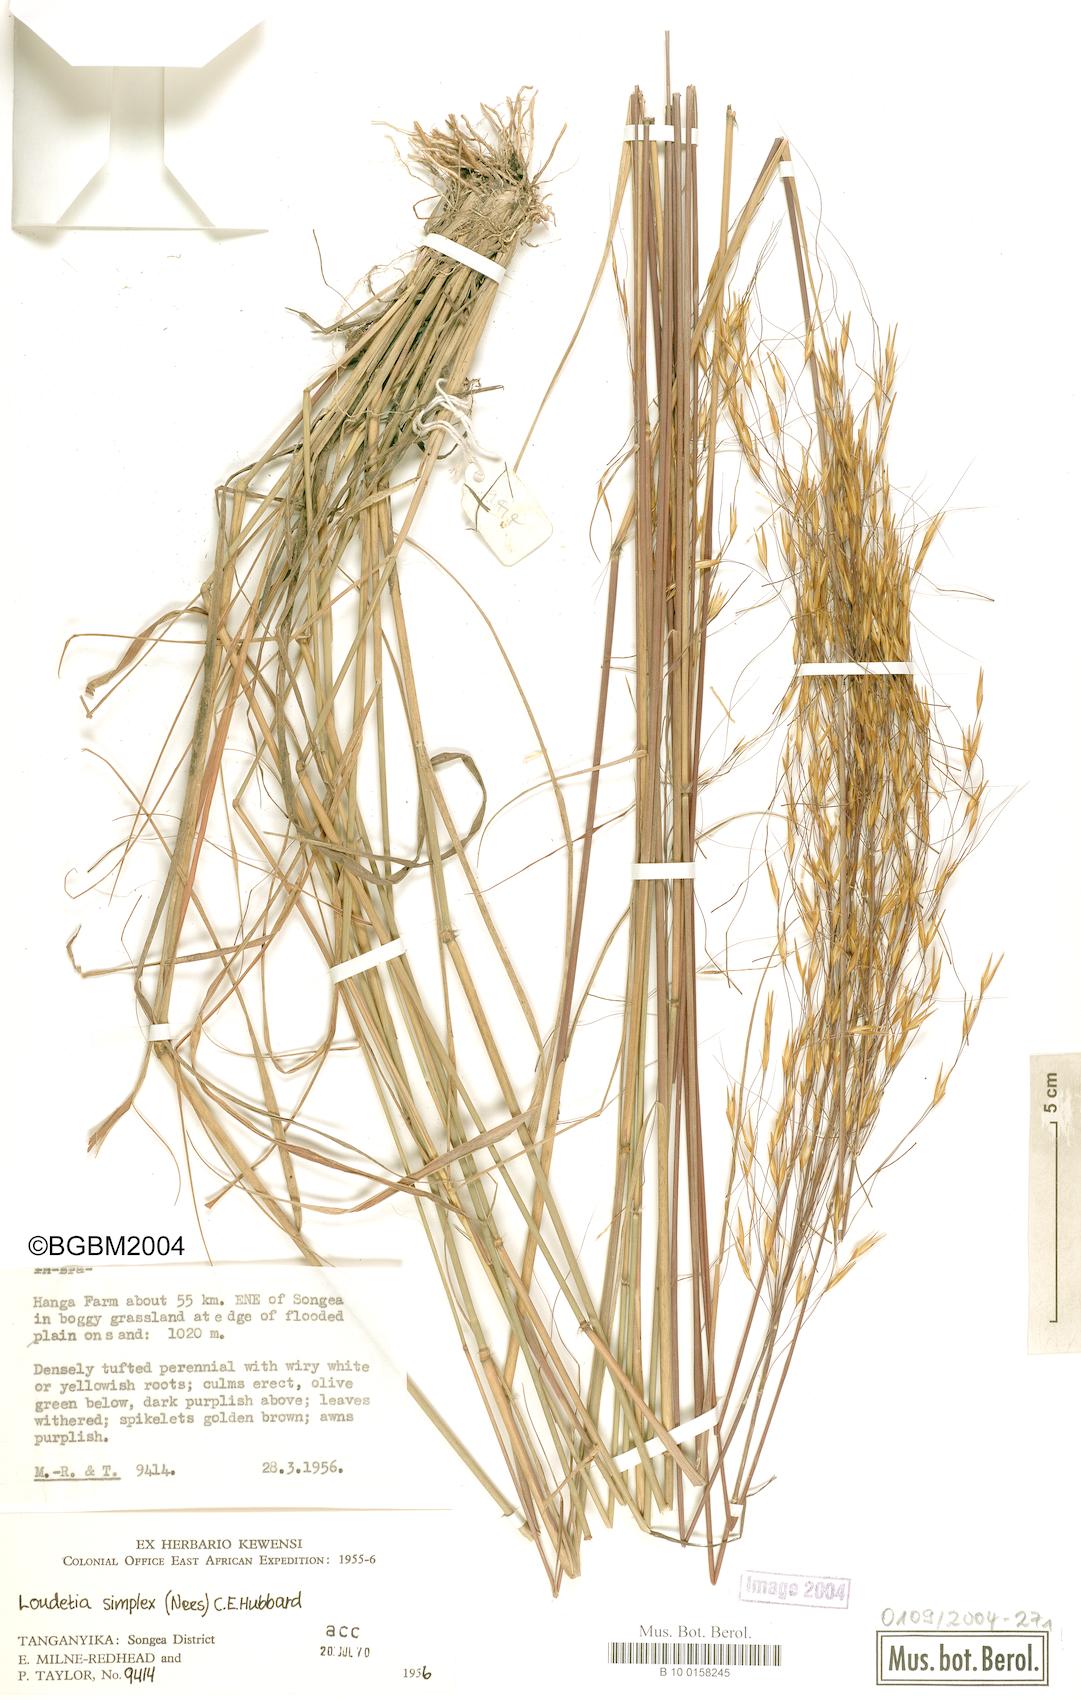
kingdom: Plantae
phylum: Tracheophyta
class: Liliopsida
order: Poales
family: Poaceae
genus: Loudetia
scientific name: Loudetia simplex
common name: Common russet grass
